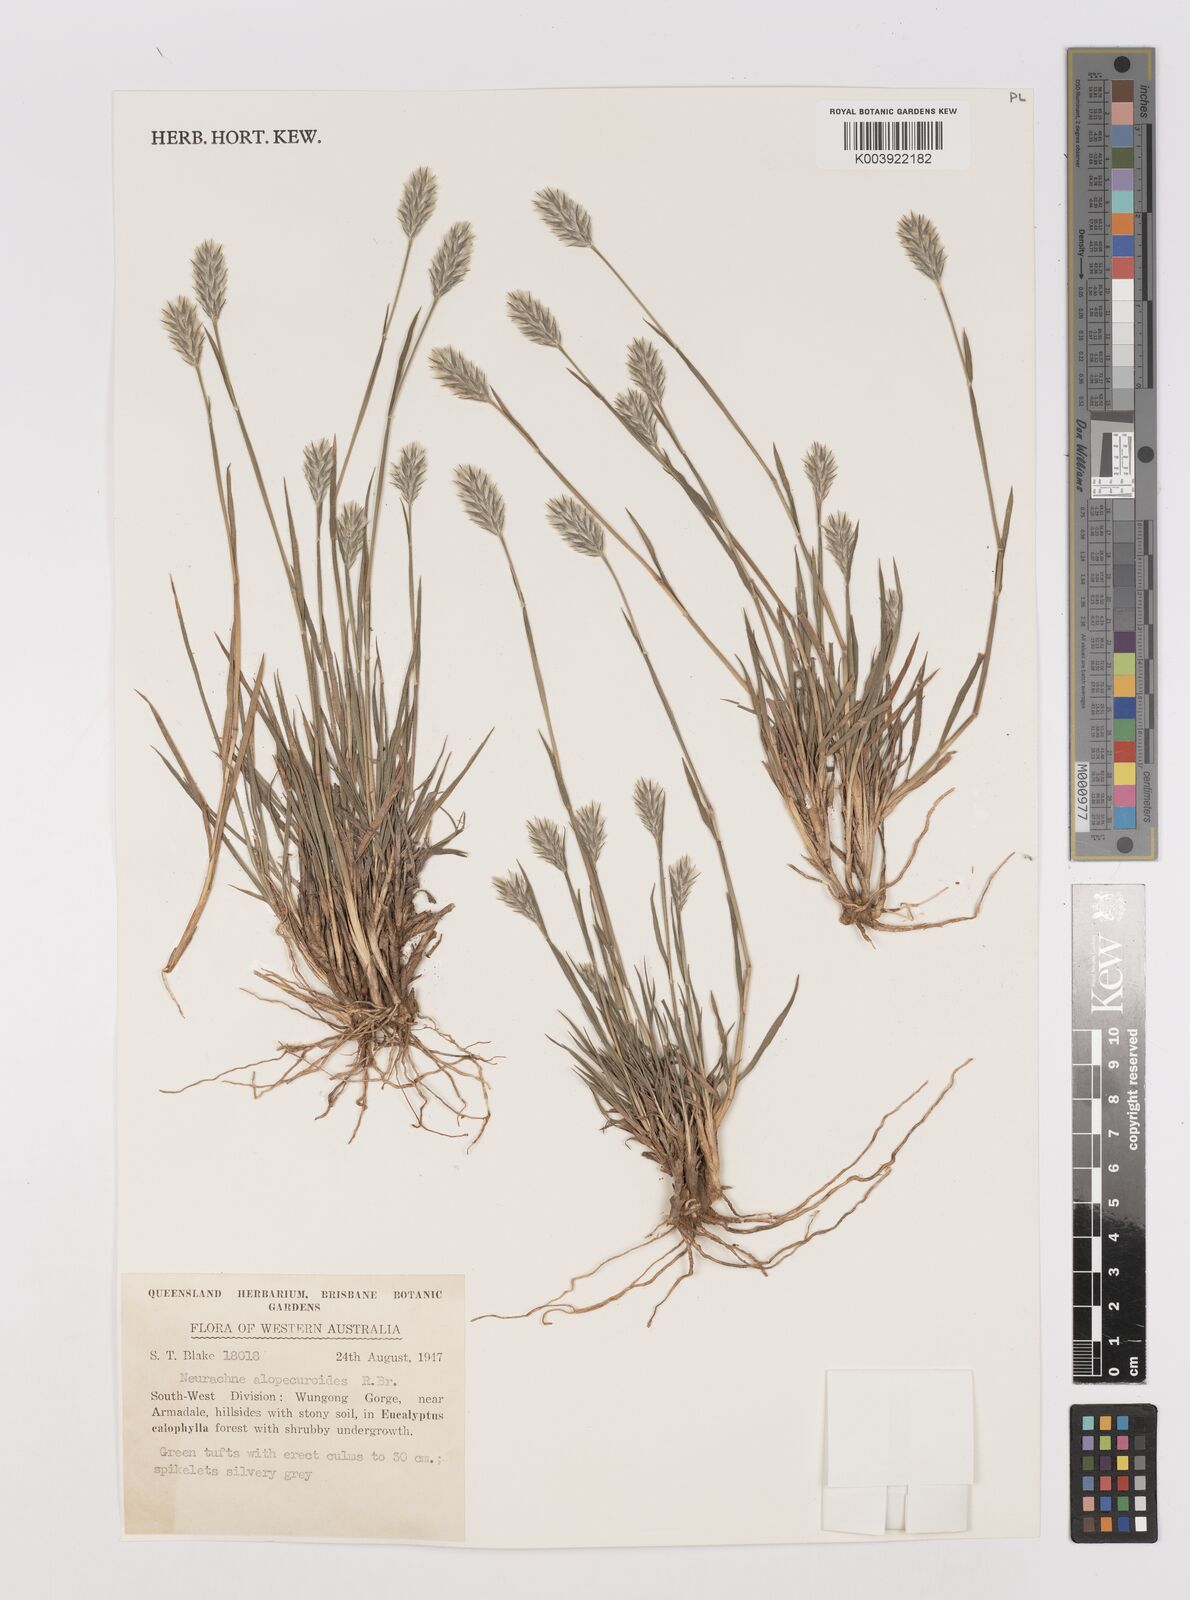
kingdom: Plantae
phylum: Tracheophyta
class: Liliopsida
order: Poales
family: Poaceae
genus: Neurachne
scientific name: Neurachne alopecuroidea
